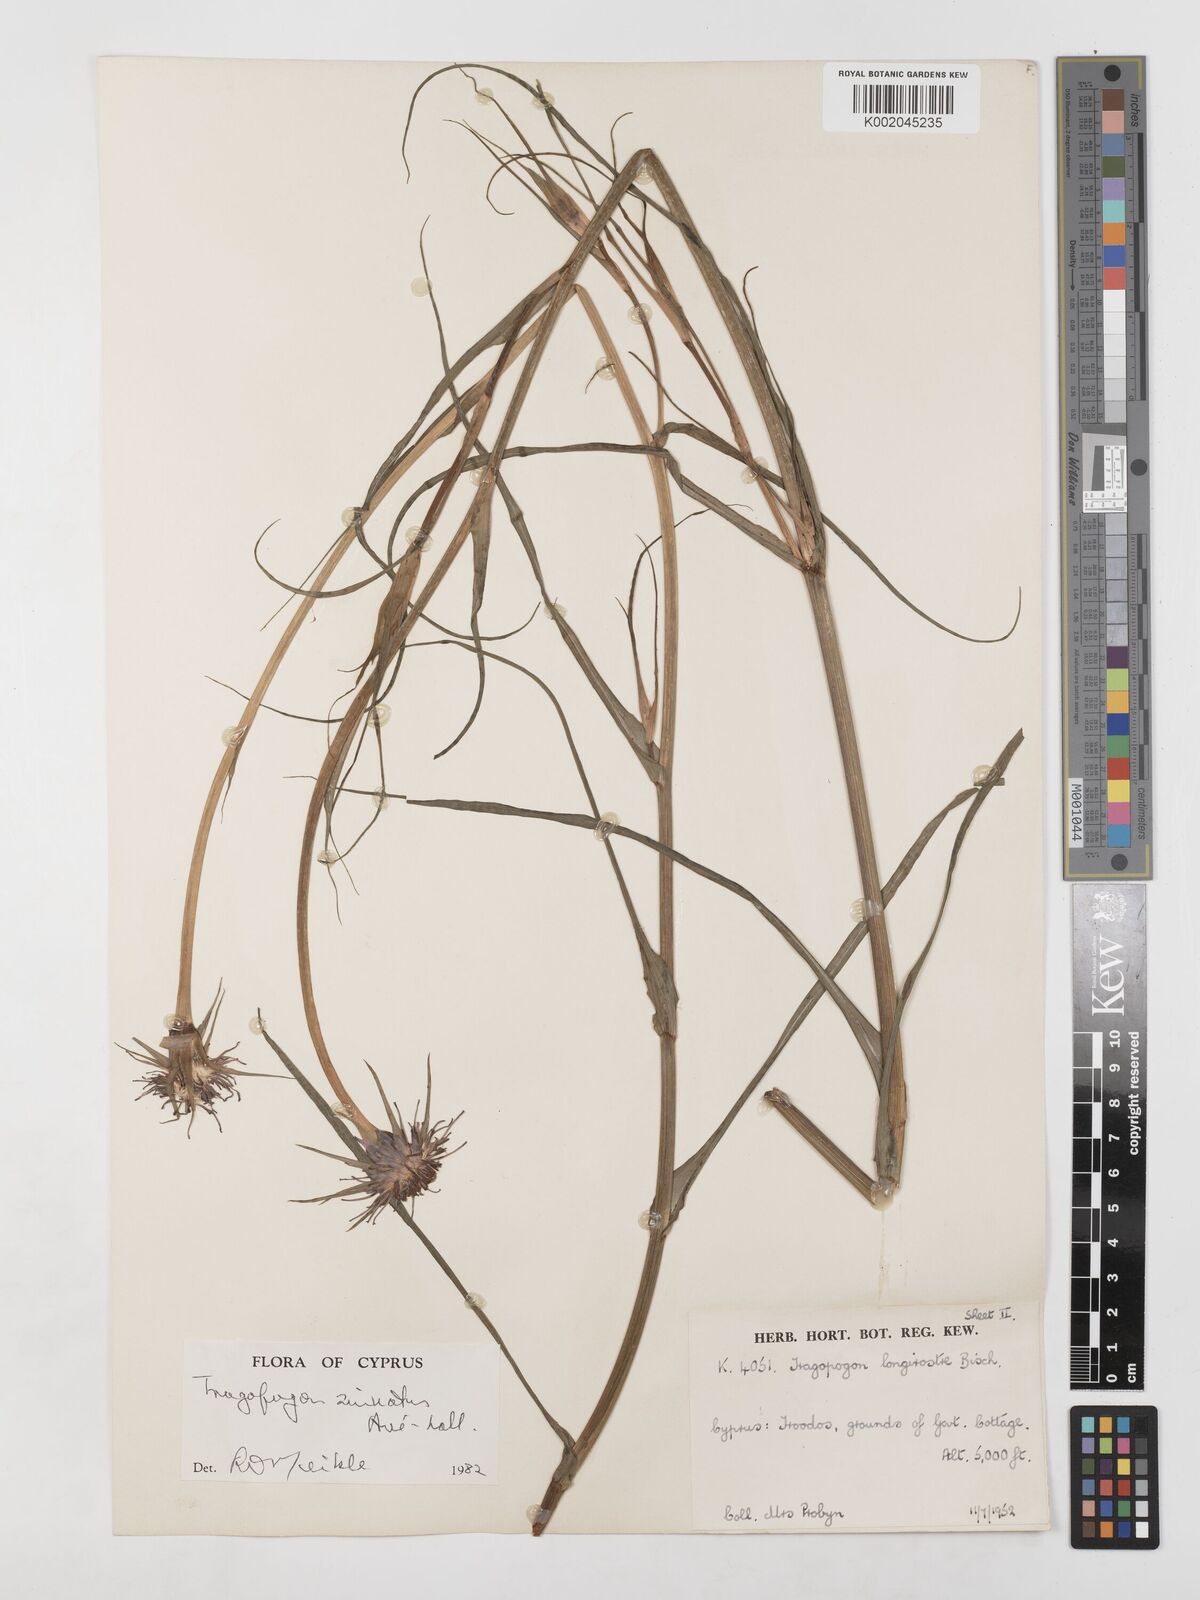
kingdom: Plantae
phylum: Tracheophyta
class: Magnoliopsida
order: Asterales
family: Asteraceae
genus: Tragopogon
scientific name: Tragopogon porrifolius
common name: Salsify
